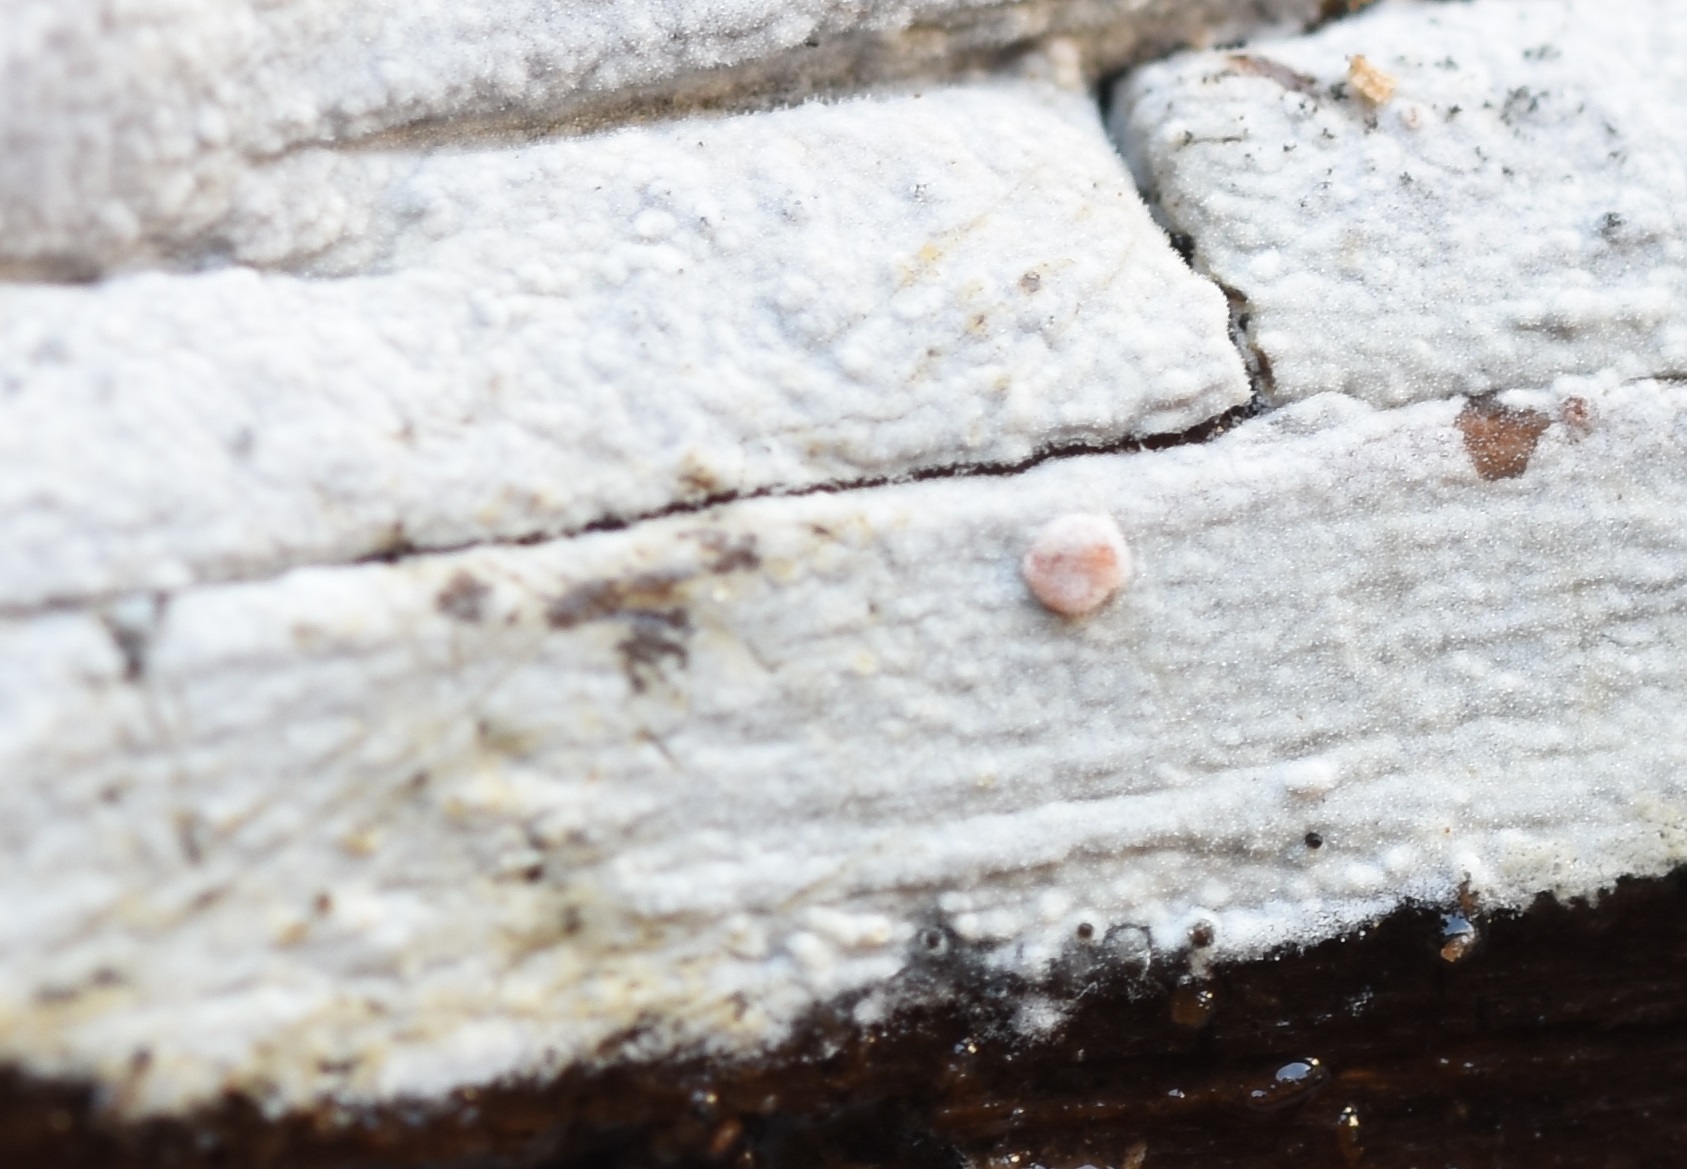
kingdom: Fungi
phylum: Basidiomycota
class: Agaricomycetes
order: Hymenochaetales
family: Hyphodontiaceae
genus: Hyphodontia
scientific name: Hyphodontia alutaria
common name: flaskerenser-nålehinde
